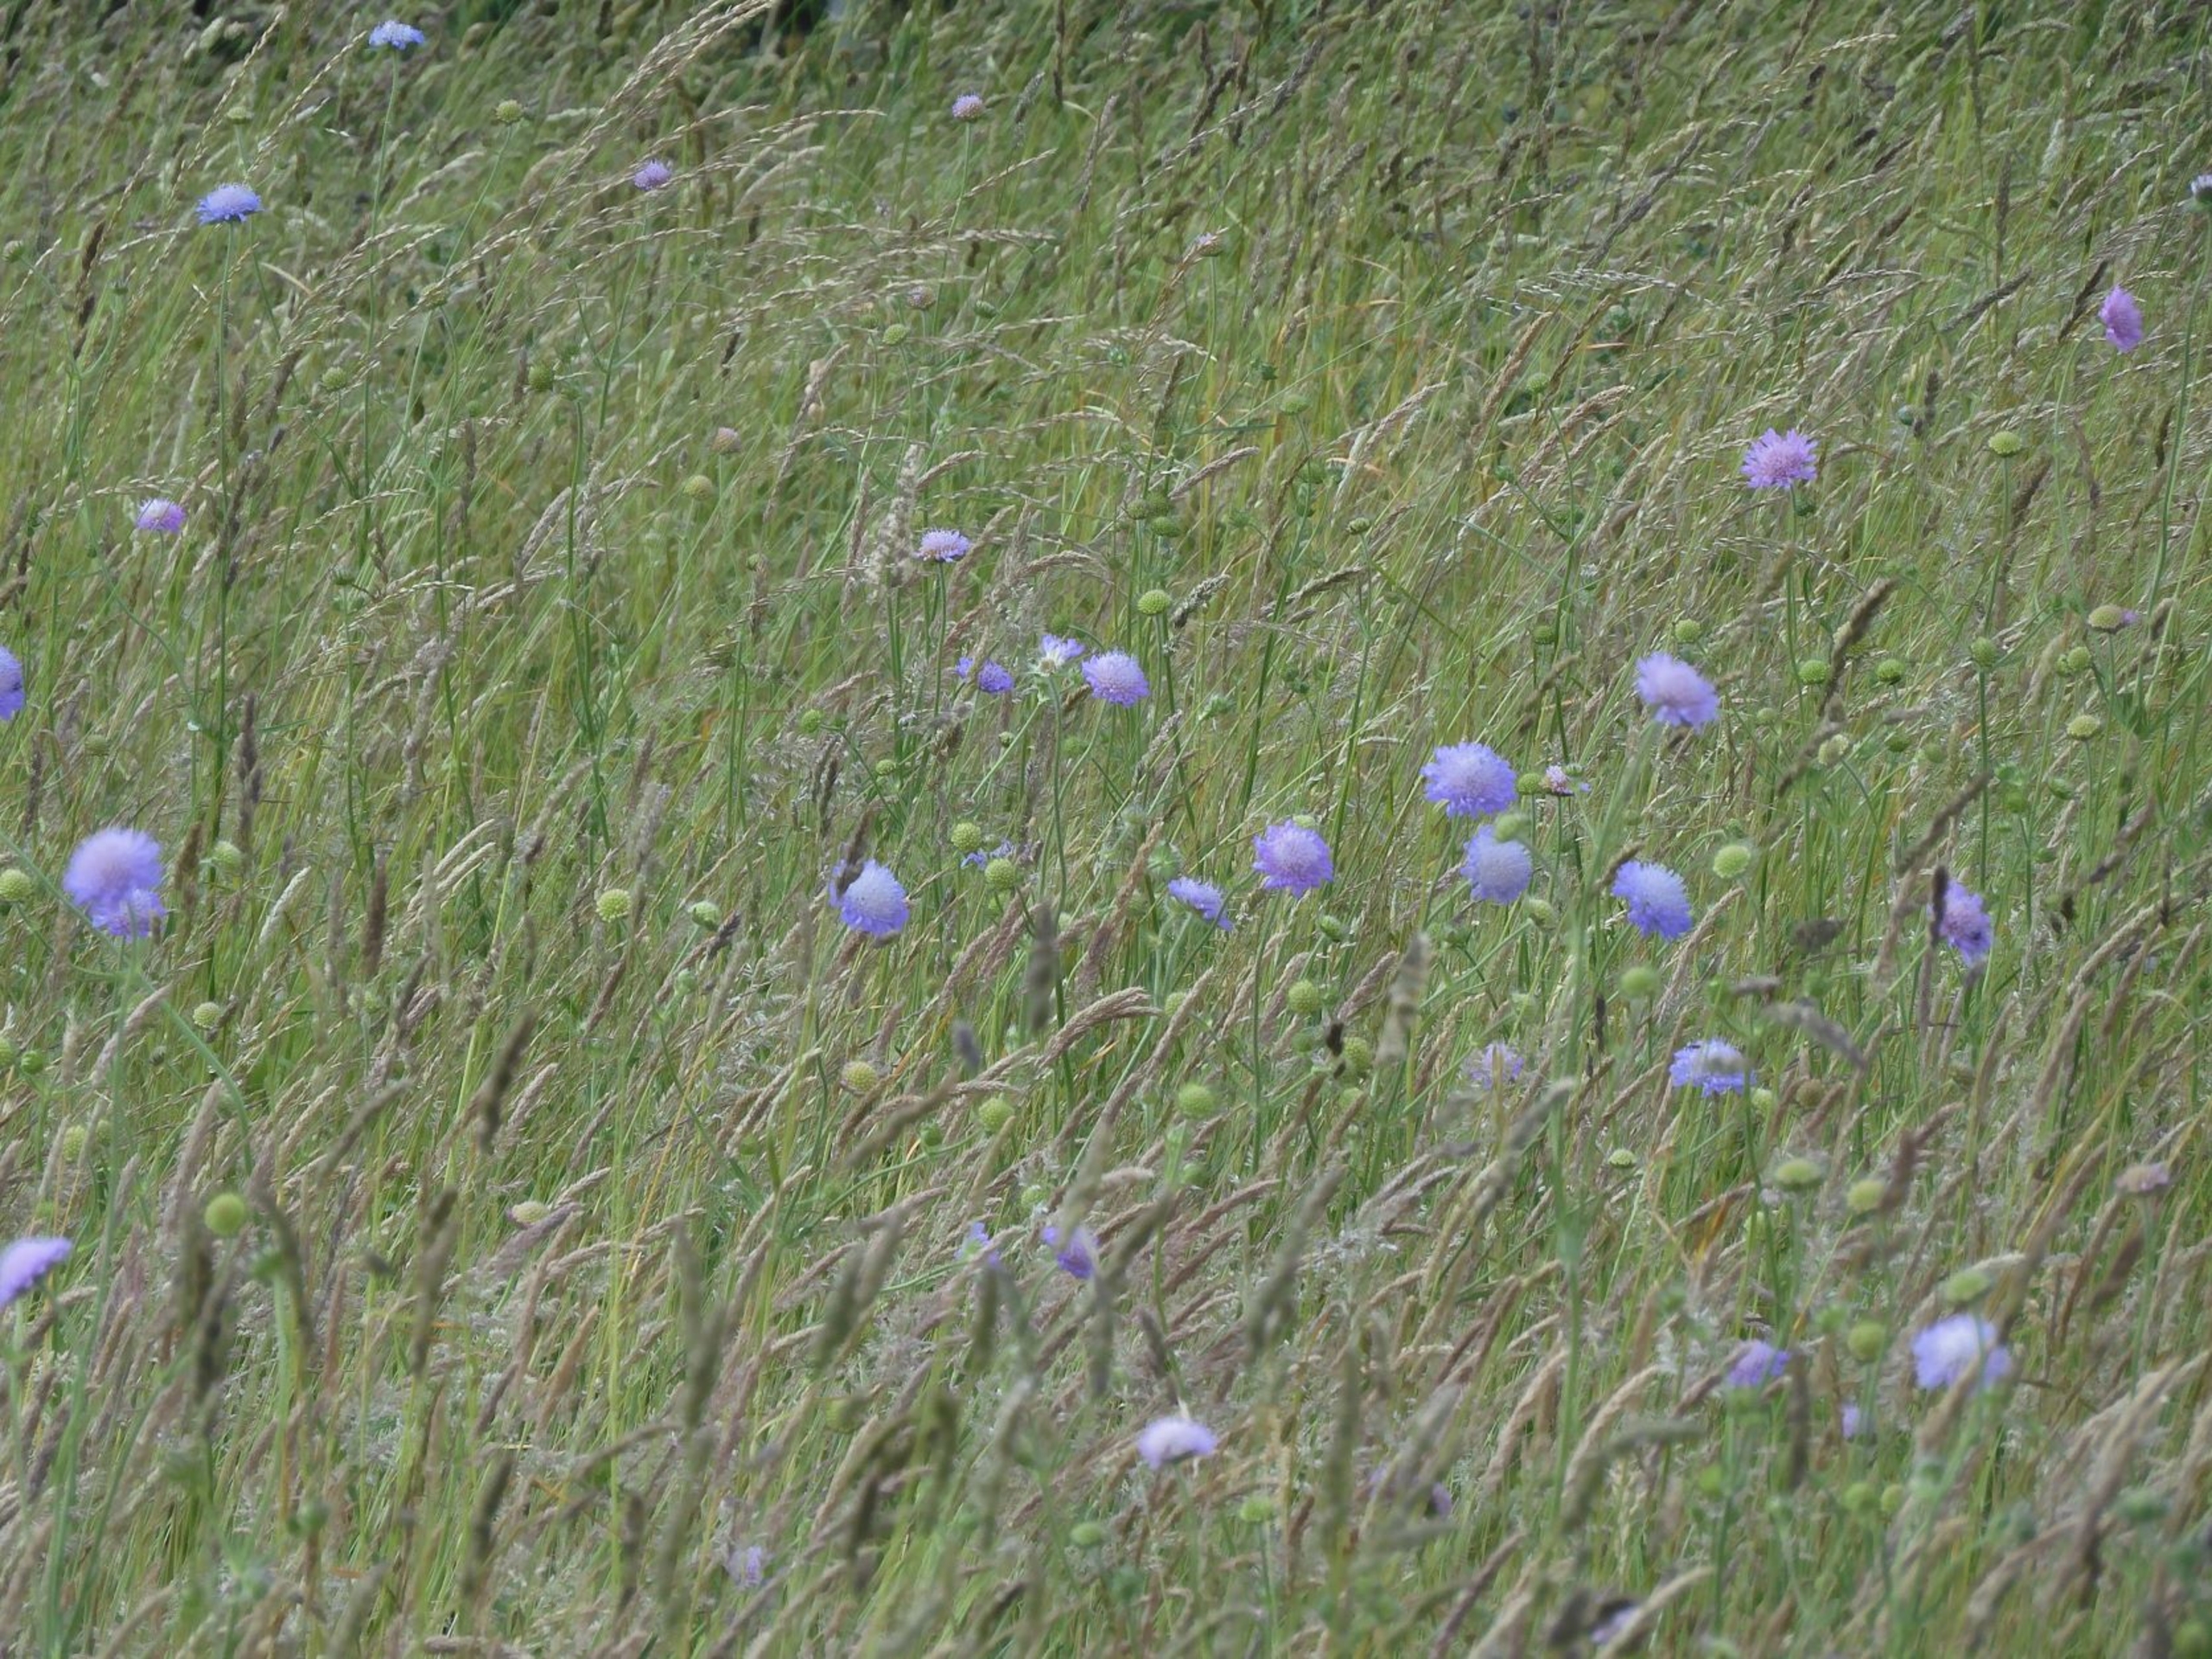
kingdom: Plantae
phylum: Tracheophyta
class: Magnoliopsida
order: Dipsacales
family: Caprifoliaceae
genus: Knautia
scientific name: Knautia arvensis
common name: Blåhat
